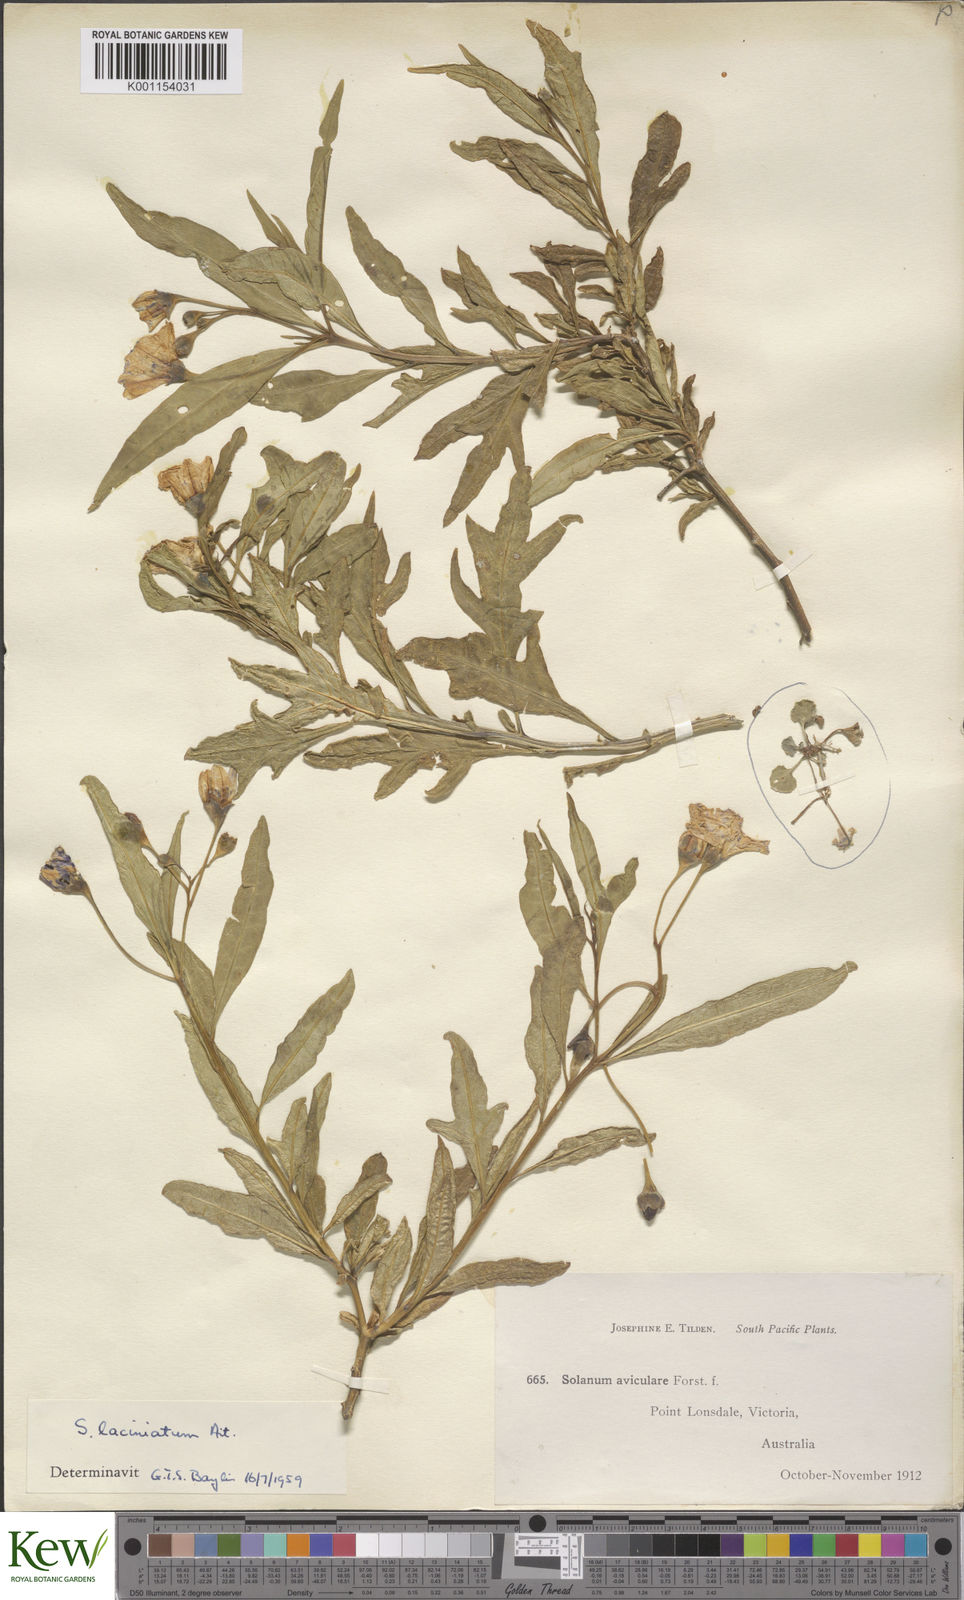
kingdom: Plantae
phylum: Tracheophyta
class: Magnoliopsida
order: Solanales
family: Solanaceae
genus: Solanum
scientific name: Solanum laciniatum
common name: Kangaroo-apple
